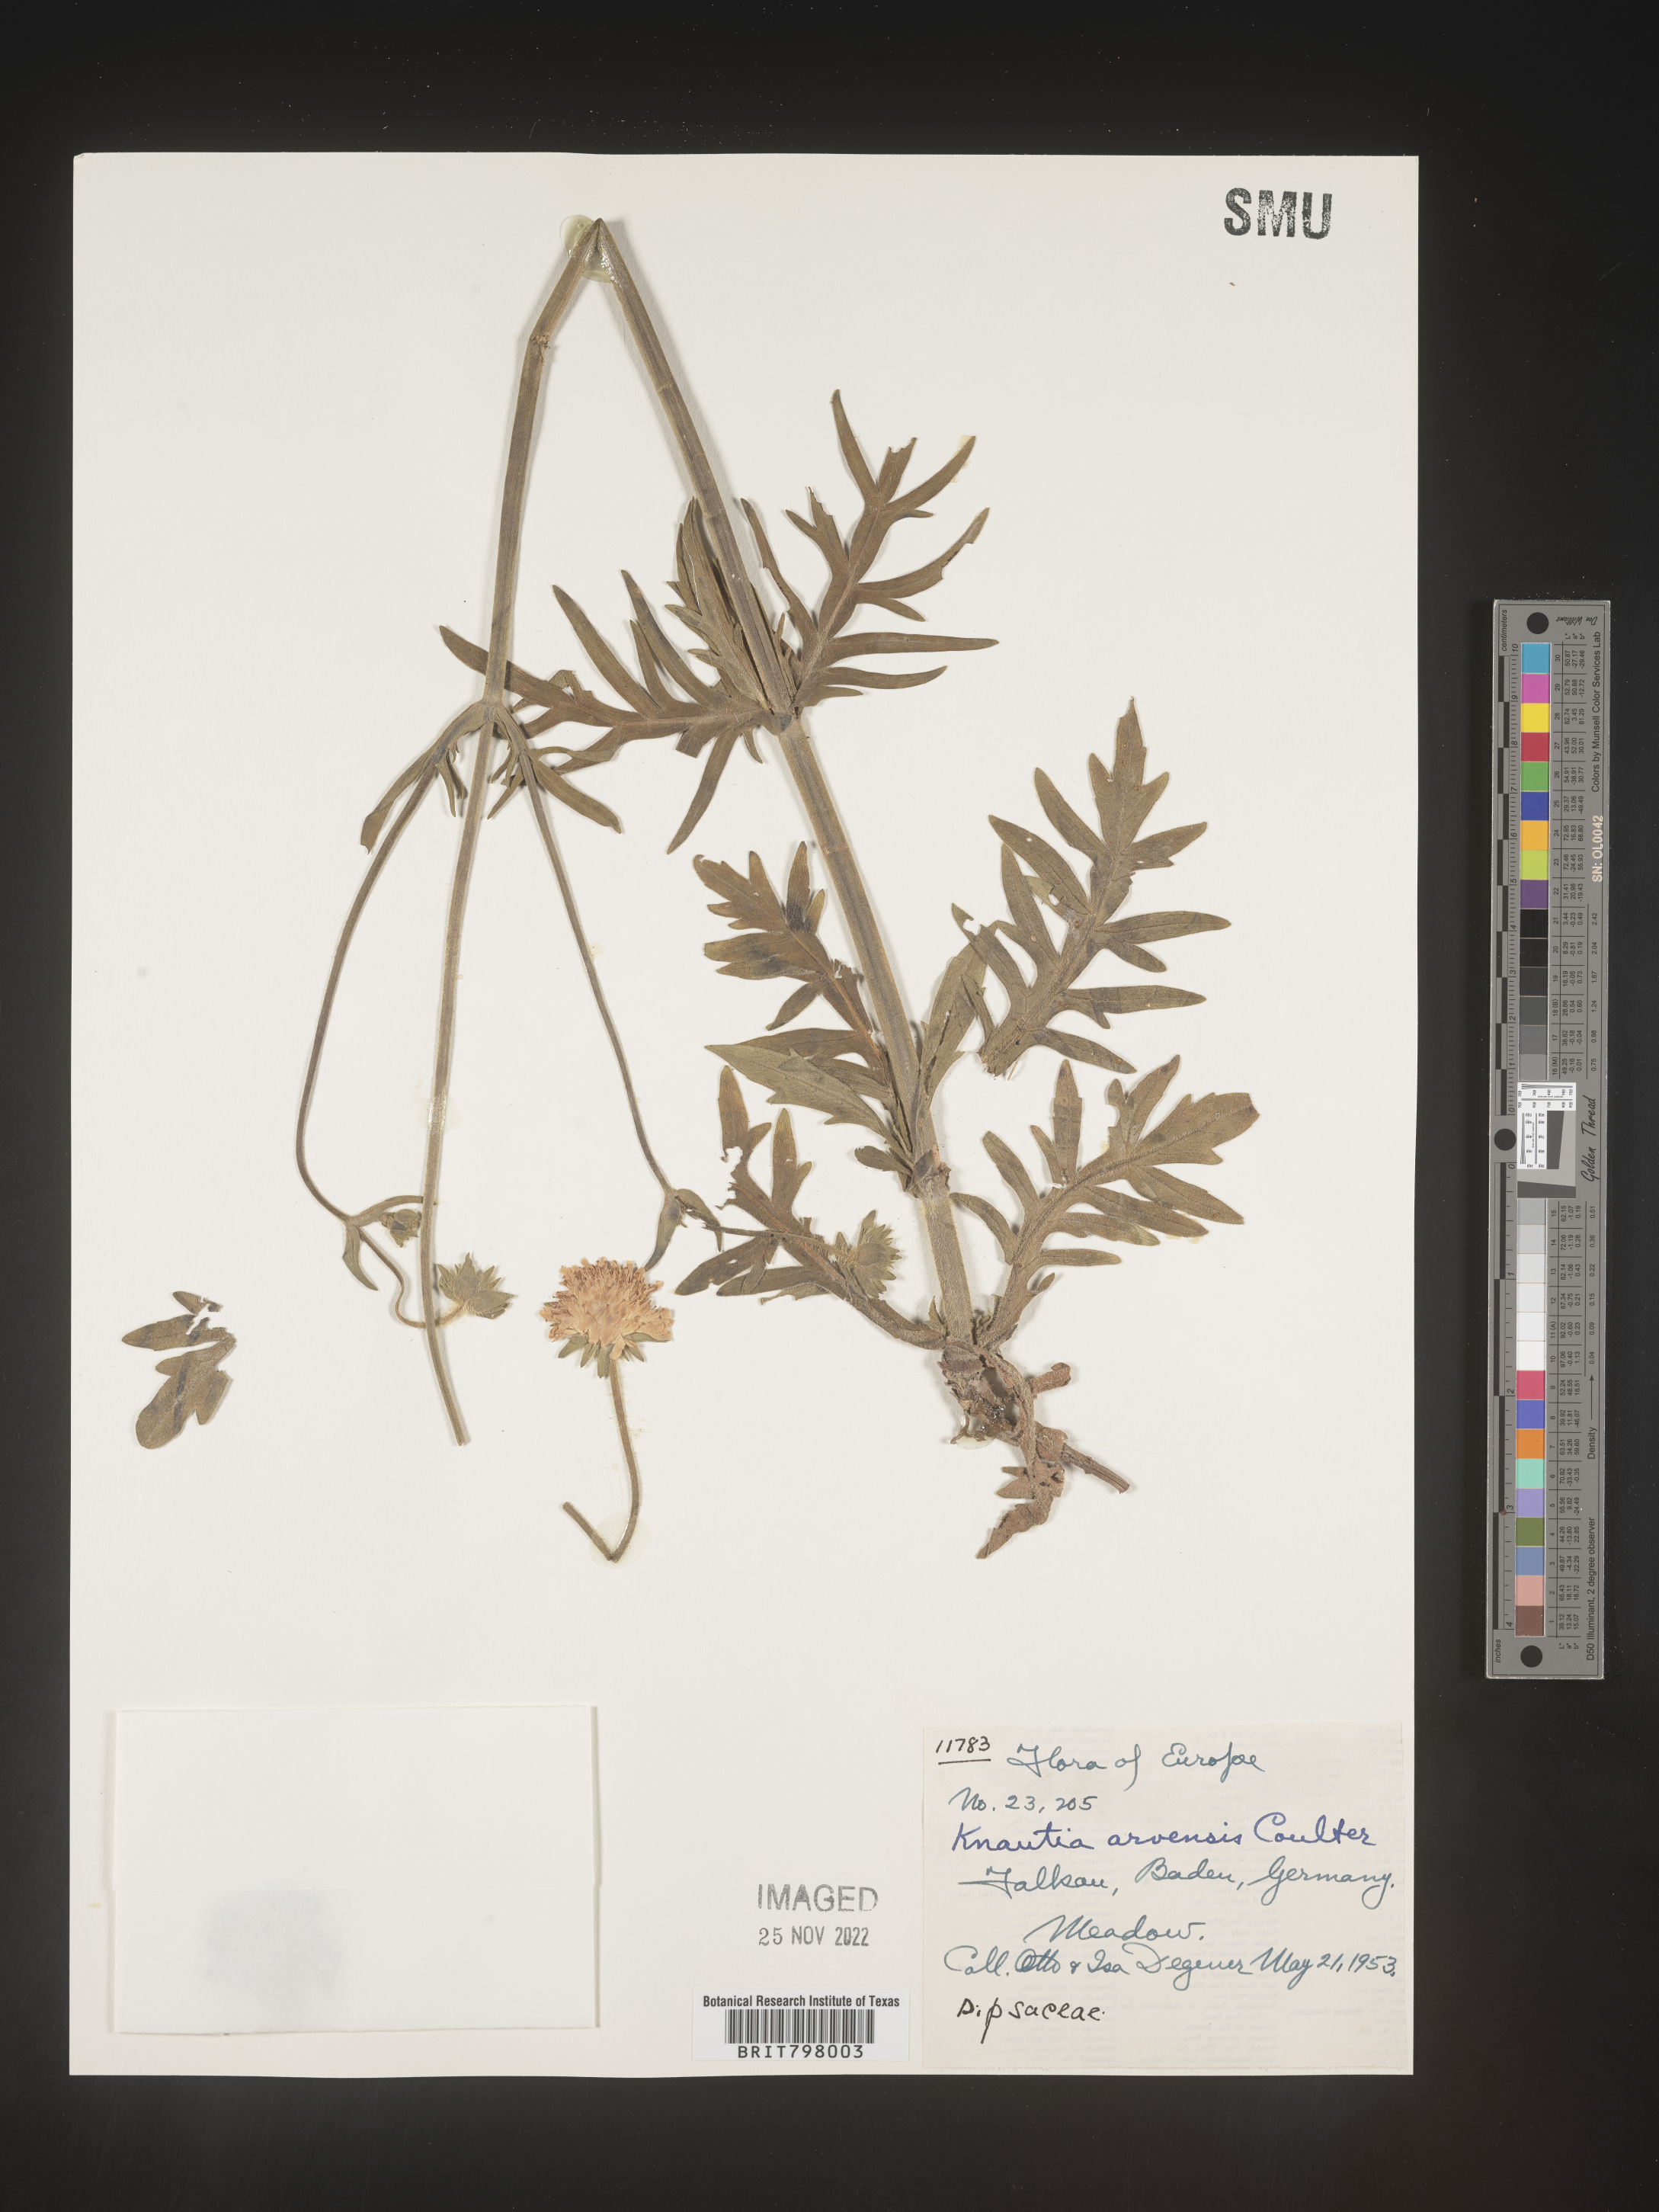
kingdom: Plantae
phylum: Tracheophyta
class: Magnoliopsida
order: Dipsacales
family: Caprifoliaceae
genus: Knautia
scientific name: Knautia
